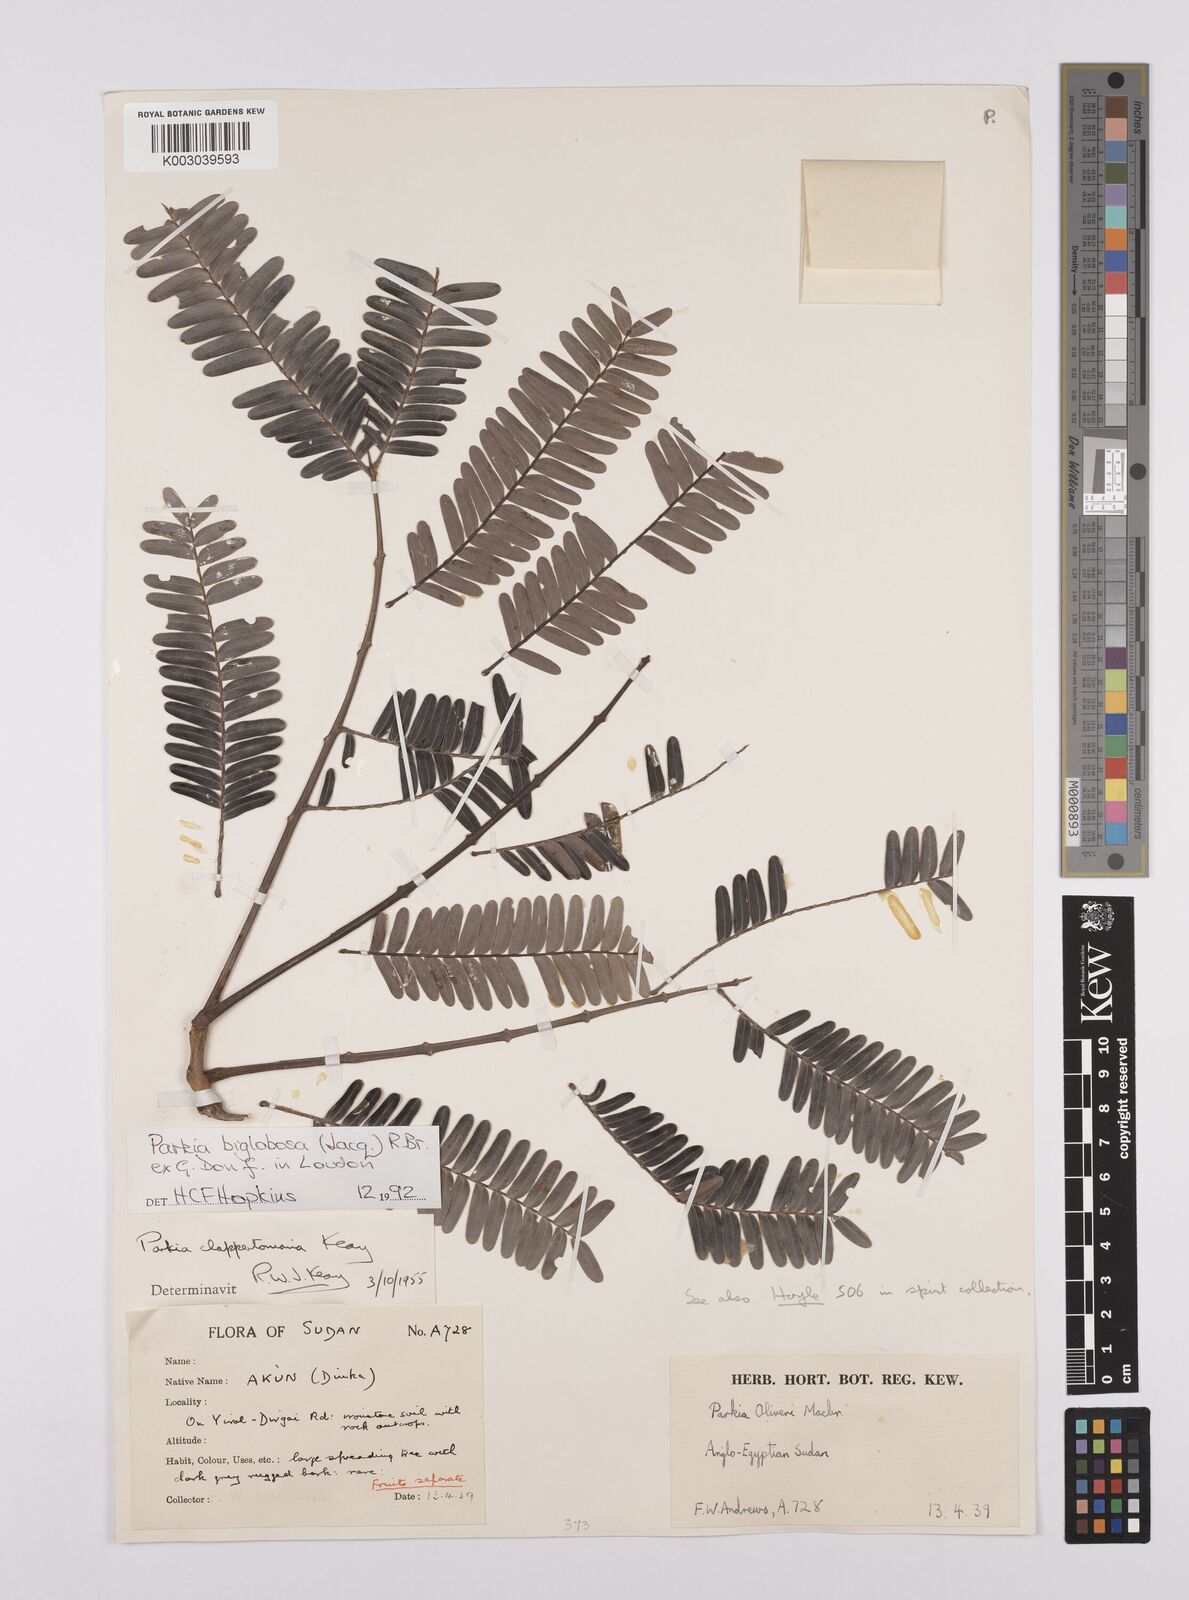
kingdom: Plantae
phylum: Tracheophyta
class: Magnoliopsida
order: Fabales
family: Fabaceae
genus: Parkia
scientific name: Parkia biglobosa
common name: African locust-bean
